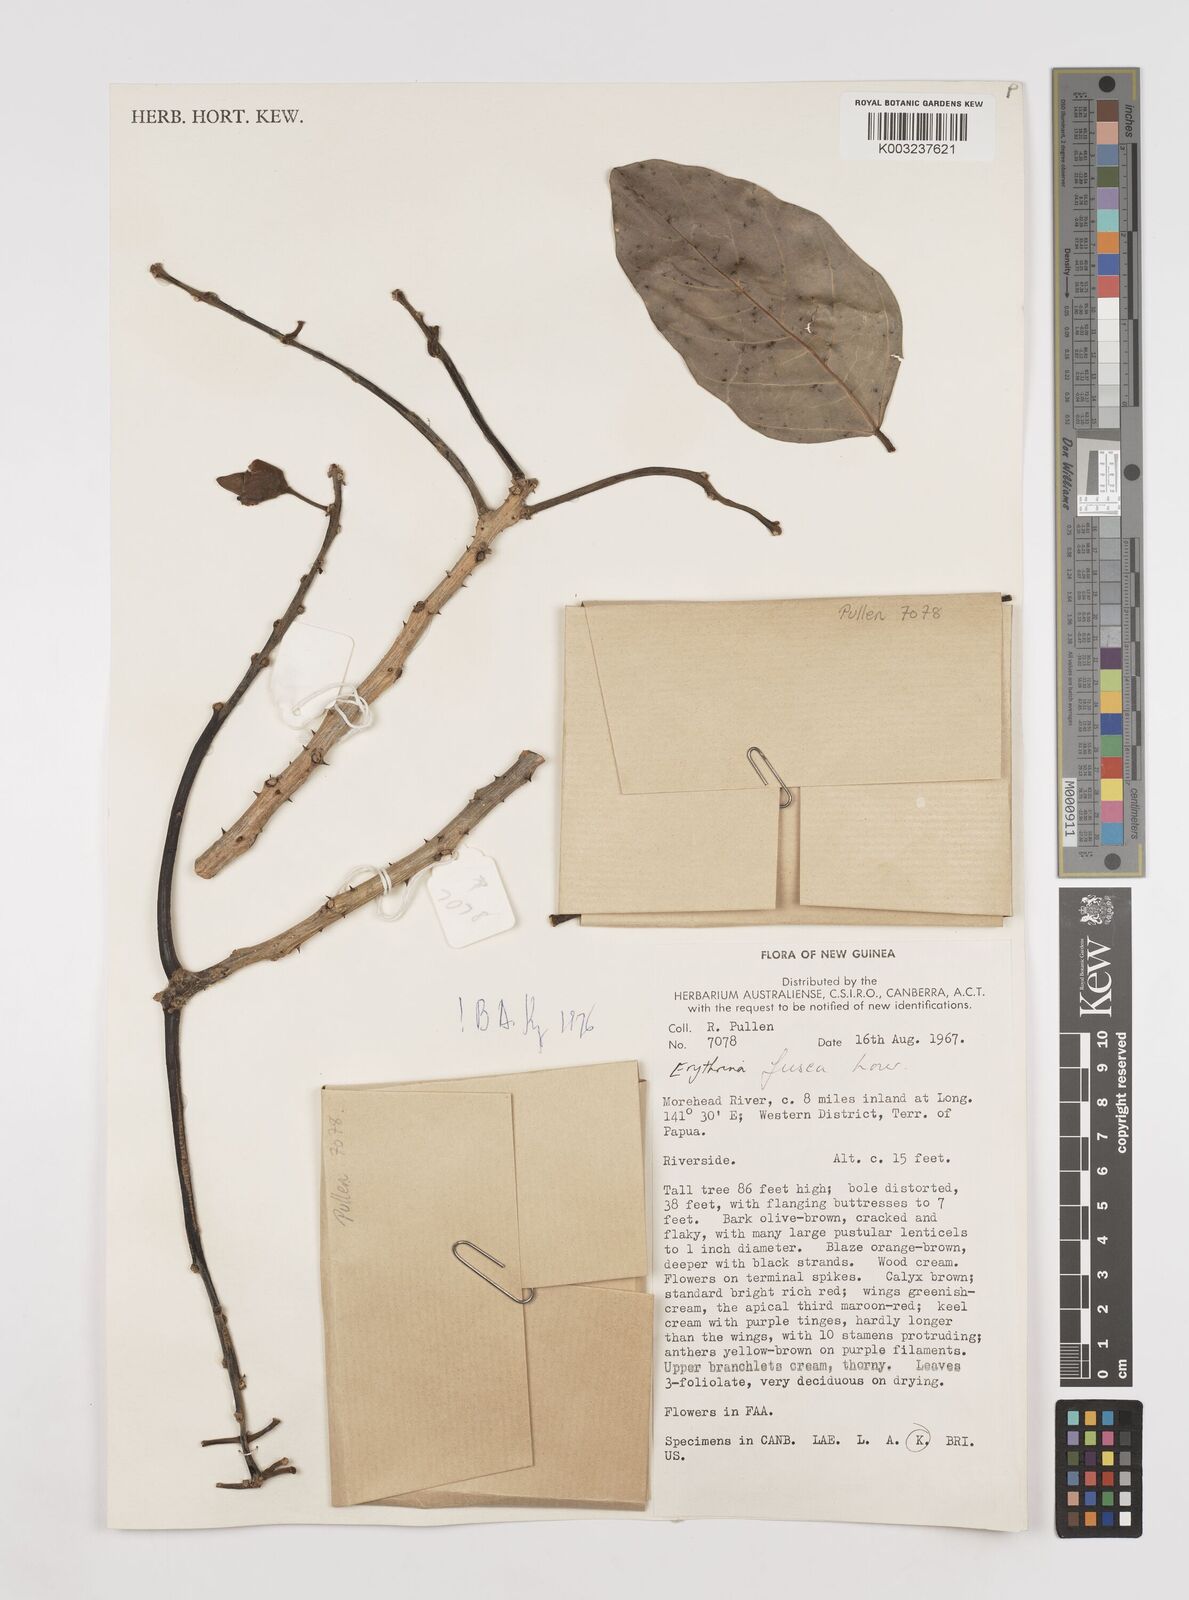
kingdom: Plantae
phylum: Tracheophyta
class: Magnoliopsida
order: Fabales
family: Fabaceae
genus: Erythrina
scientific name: Erythrina fusca
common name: Coral-bean
